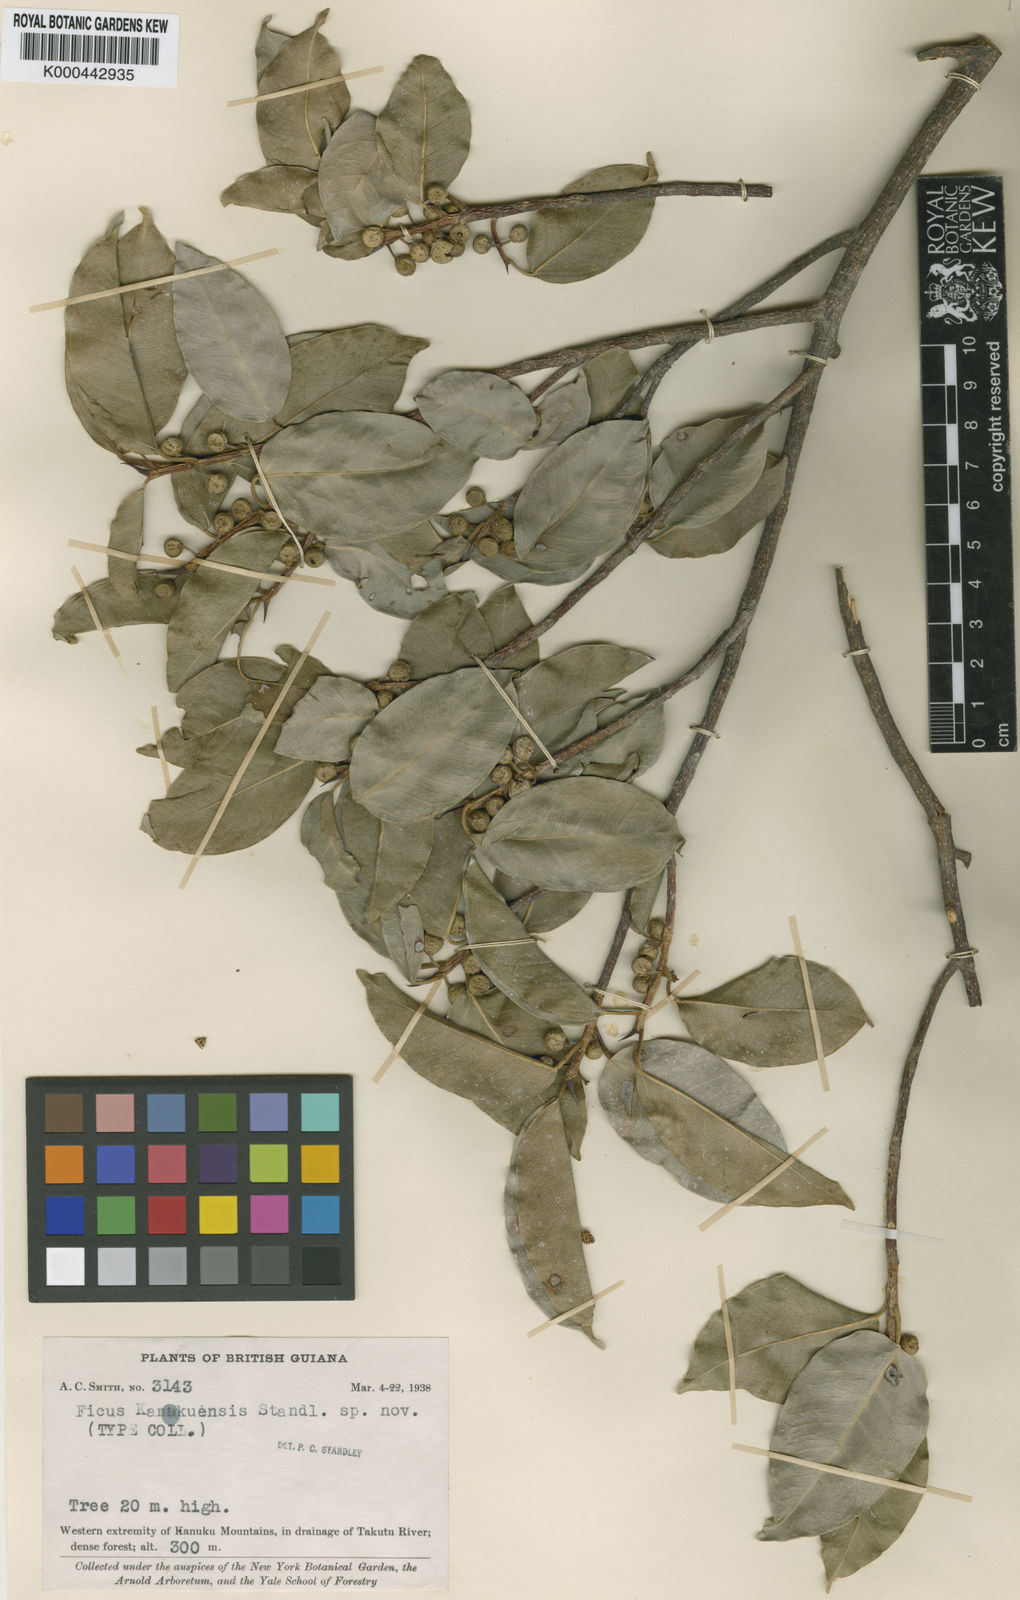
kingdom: Plantae
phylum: Tracheophyta
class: Magnoliopsida
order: Rosales
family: Moraceae
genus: Ficus
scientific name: Ficus pertusa
